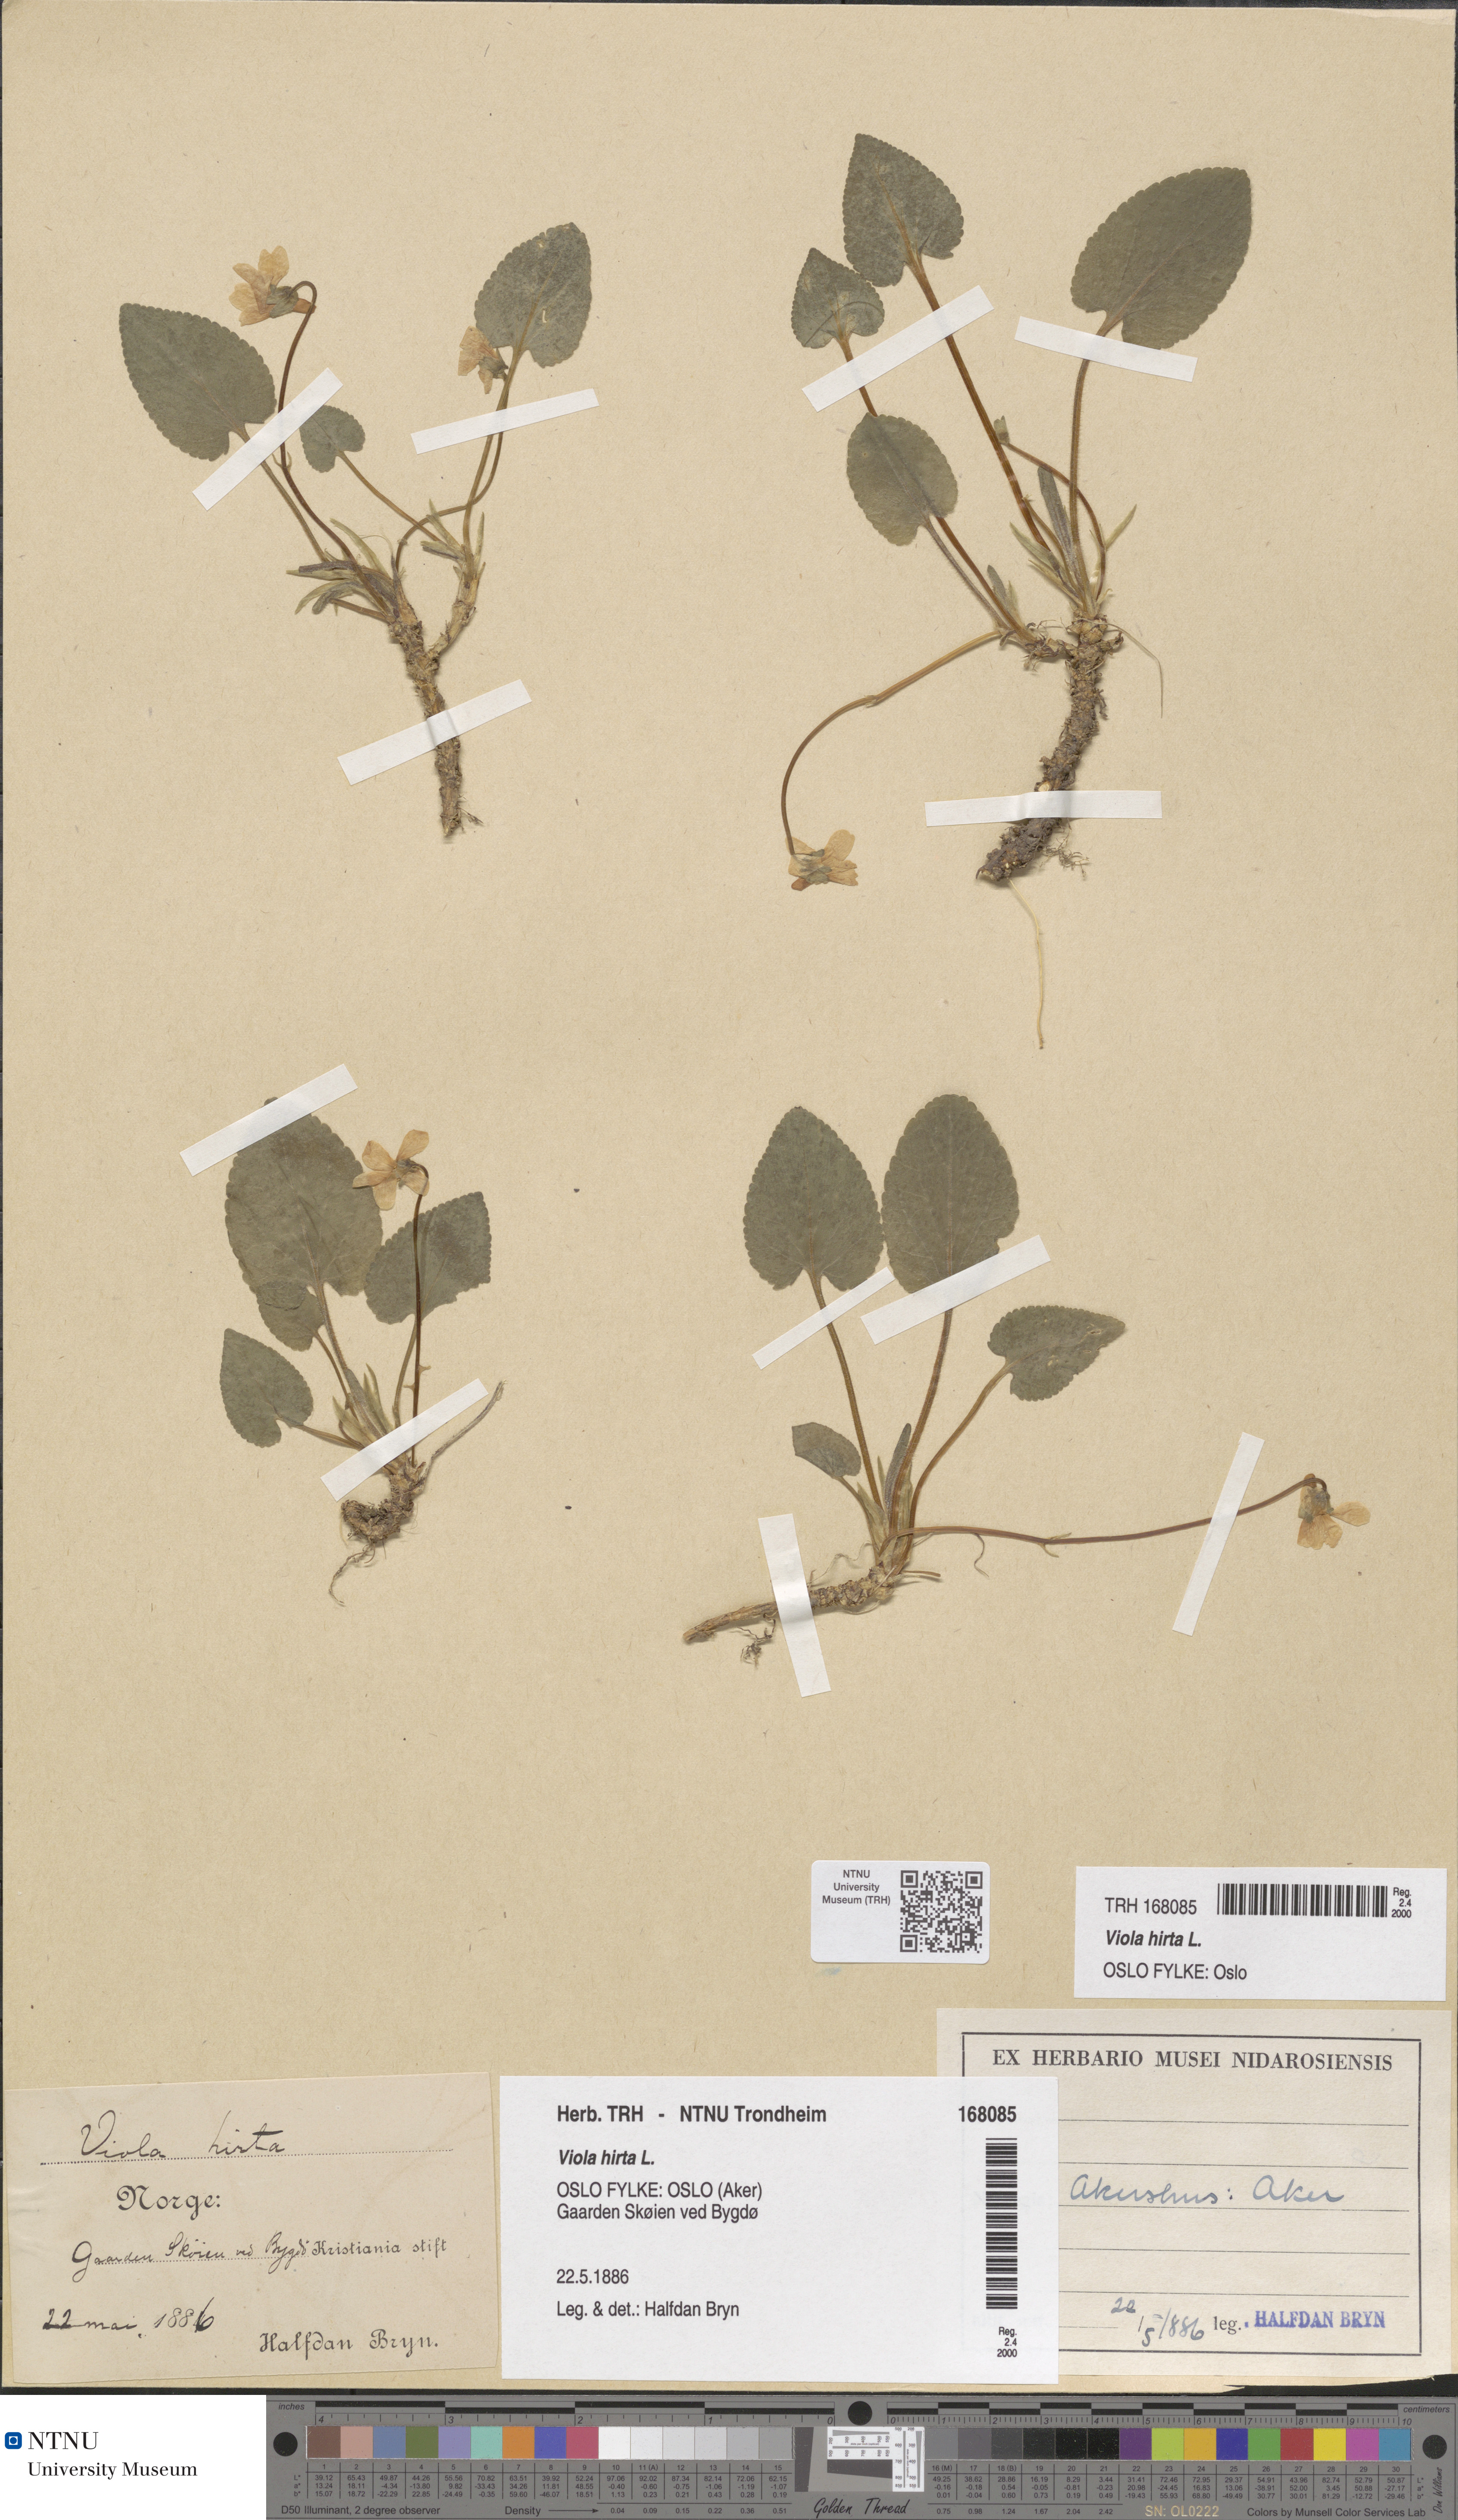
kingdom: Plantae
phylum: Tracheophyta
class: Magnoliopsida
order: Malpighiales
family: Violaceae
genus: Viola
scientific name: Viola hirta
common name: Hairy violet
